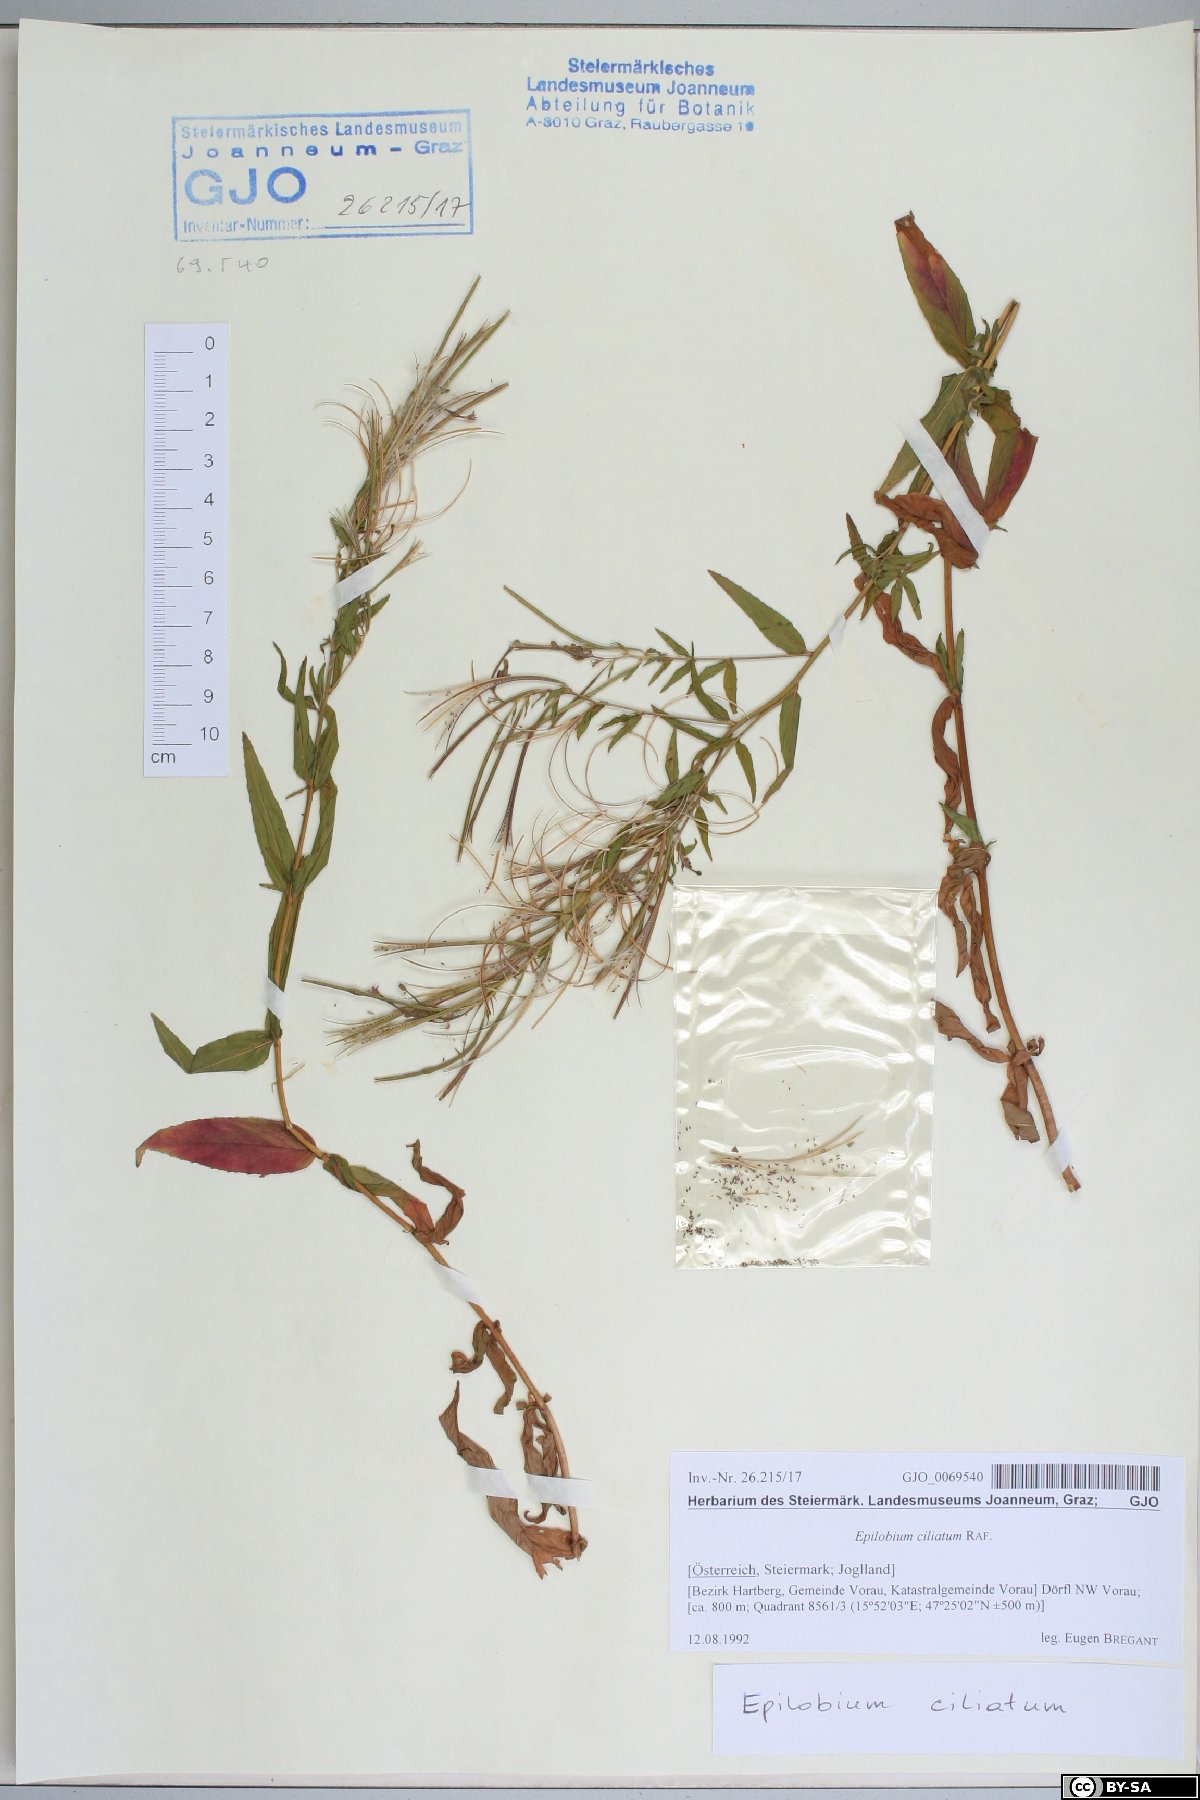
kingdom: Plantae
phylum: Tracheophyta
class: Magnoliopsida
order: Myrtales
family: Onagraceae
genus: Epilobium
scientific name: Epilobium ciliatum
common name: American willowherb
